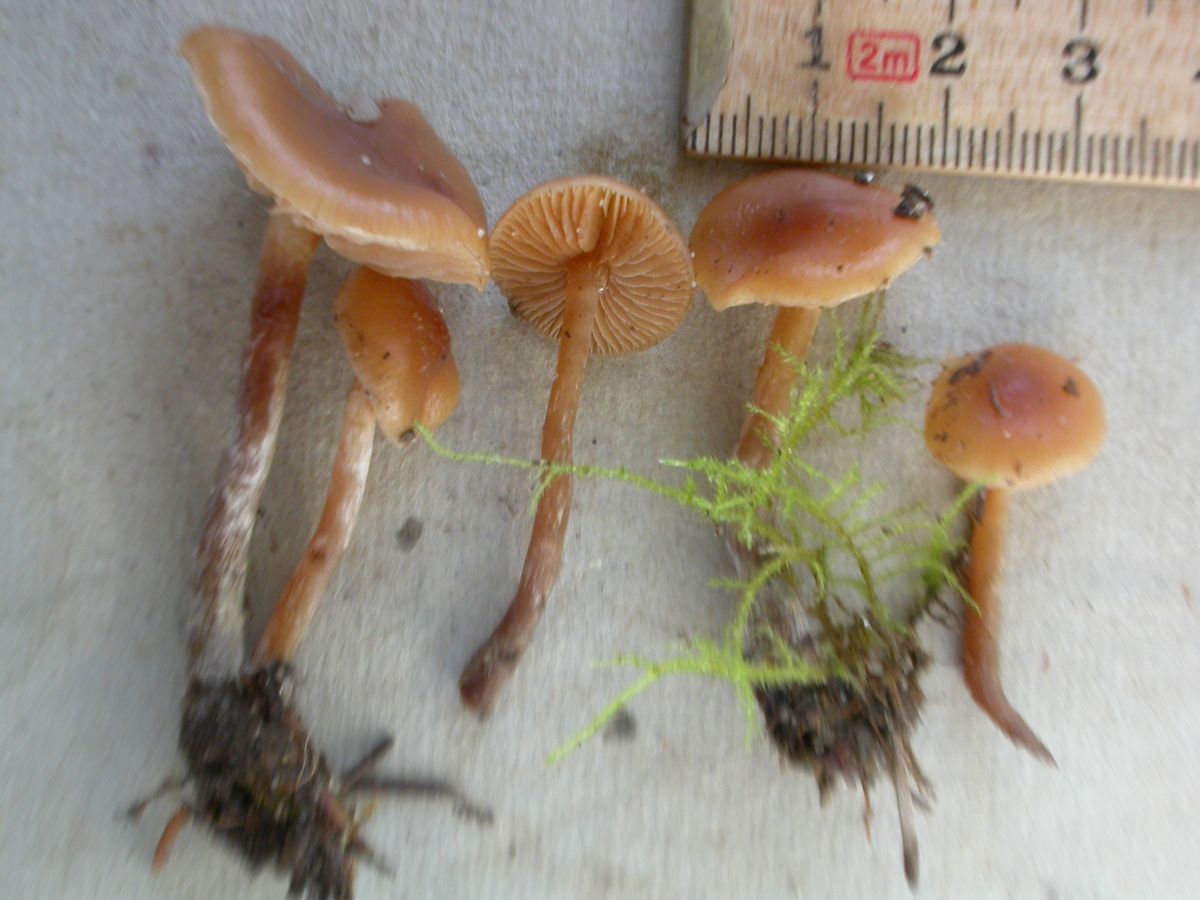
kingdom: Fungi
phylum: Basidiomycota
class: Agaricomycetes
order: Agaricales
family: Hymenogastraceae
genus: Galerina
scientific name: Galerina sideroides
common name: træflis-hjelmhat
